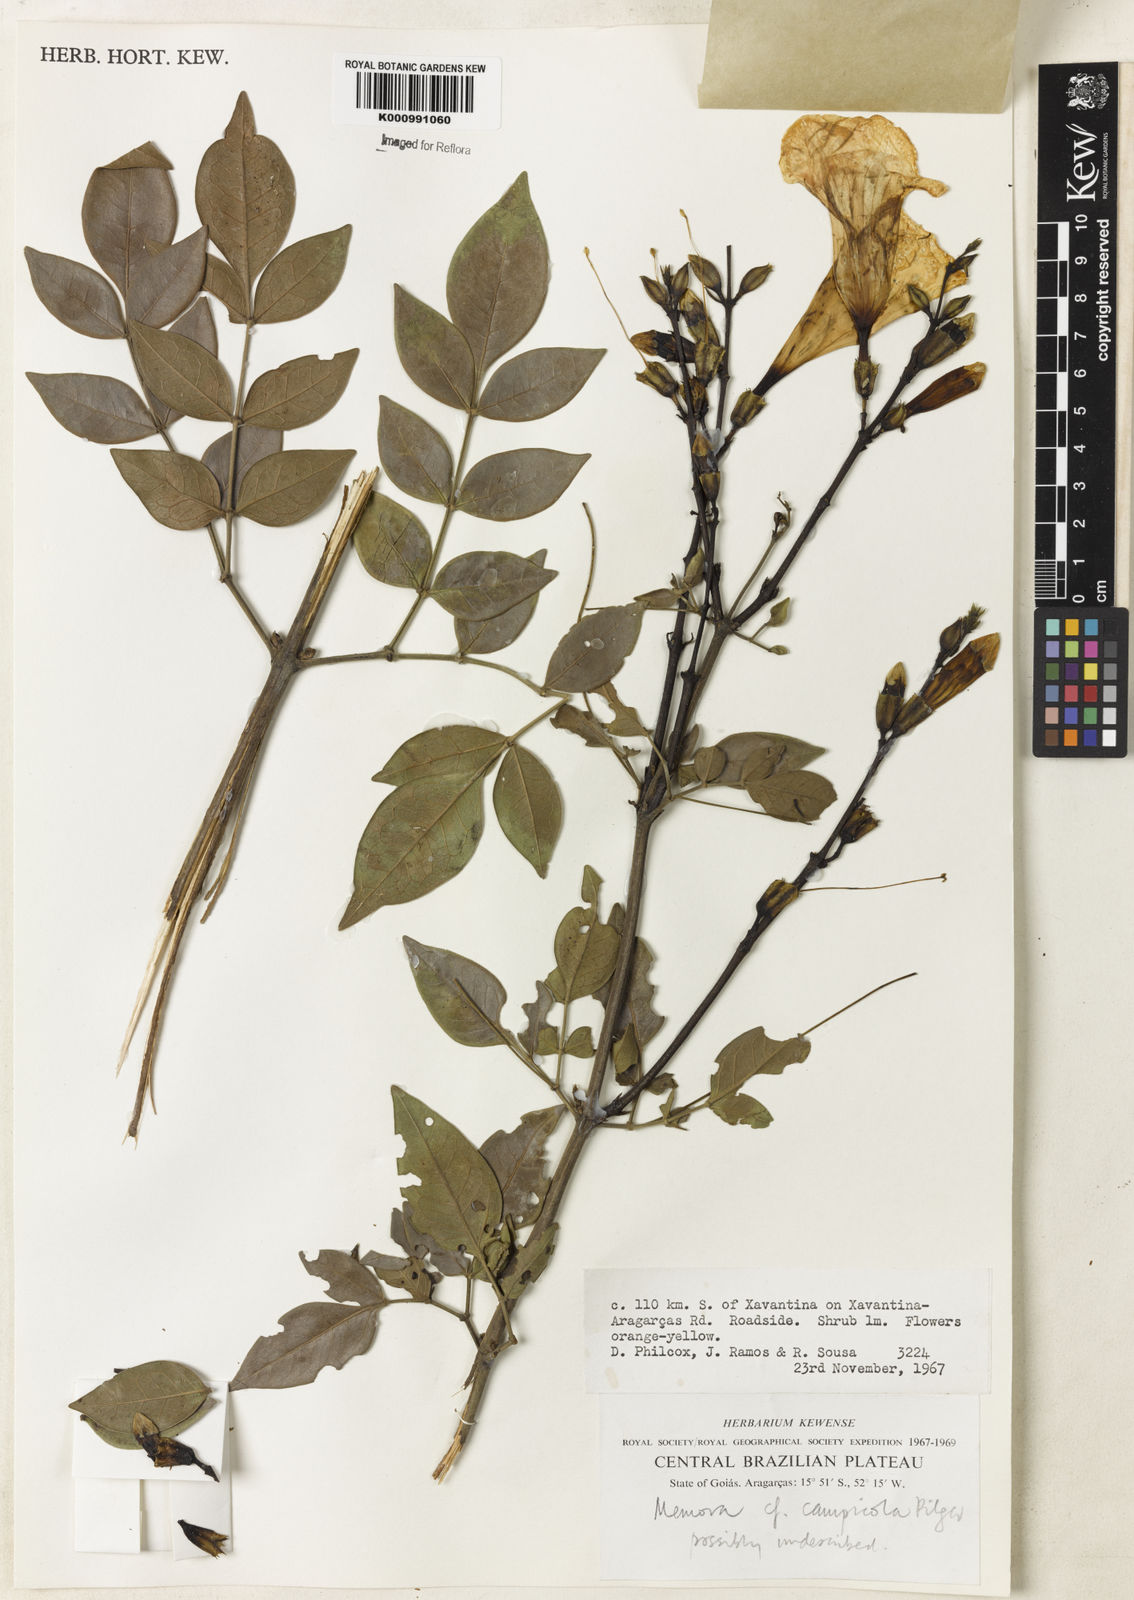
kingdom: Plantae
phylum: Tracheophyta
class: Magnoliopsida
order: Lamiales
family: Bignoniaceae
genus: Adenocalymma
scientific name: Adenocalymma campicola
